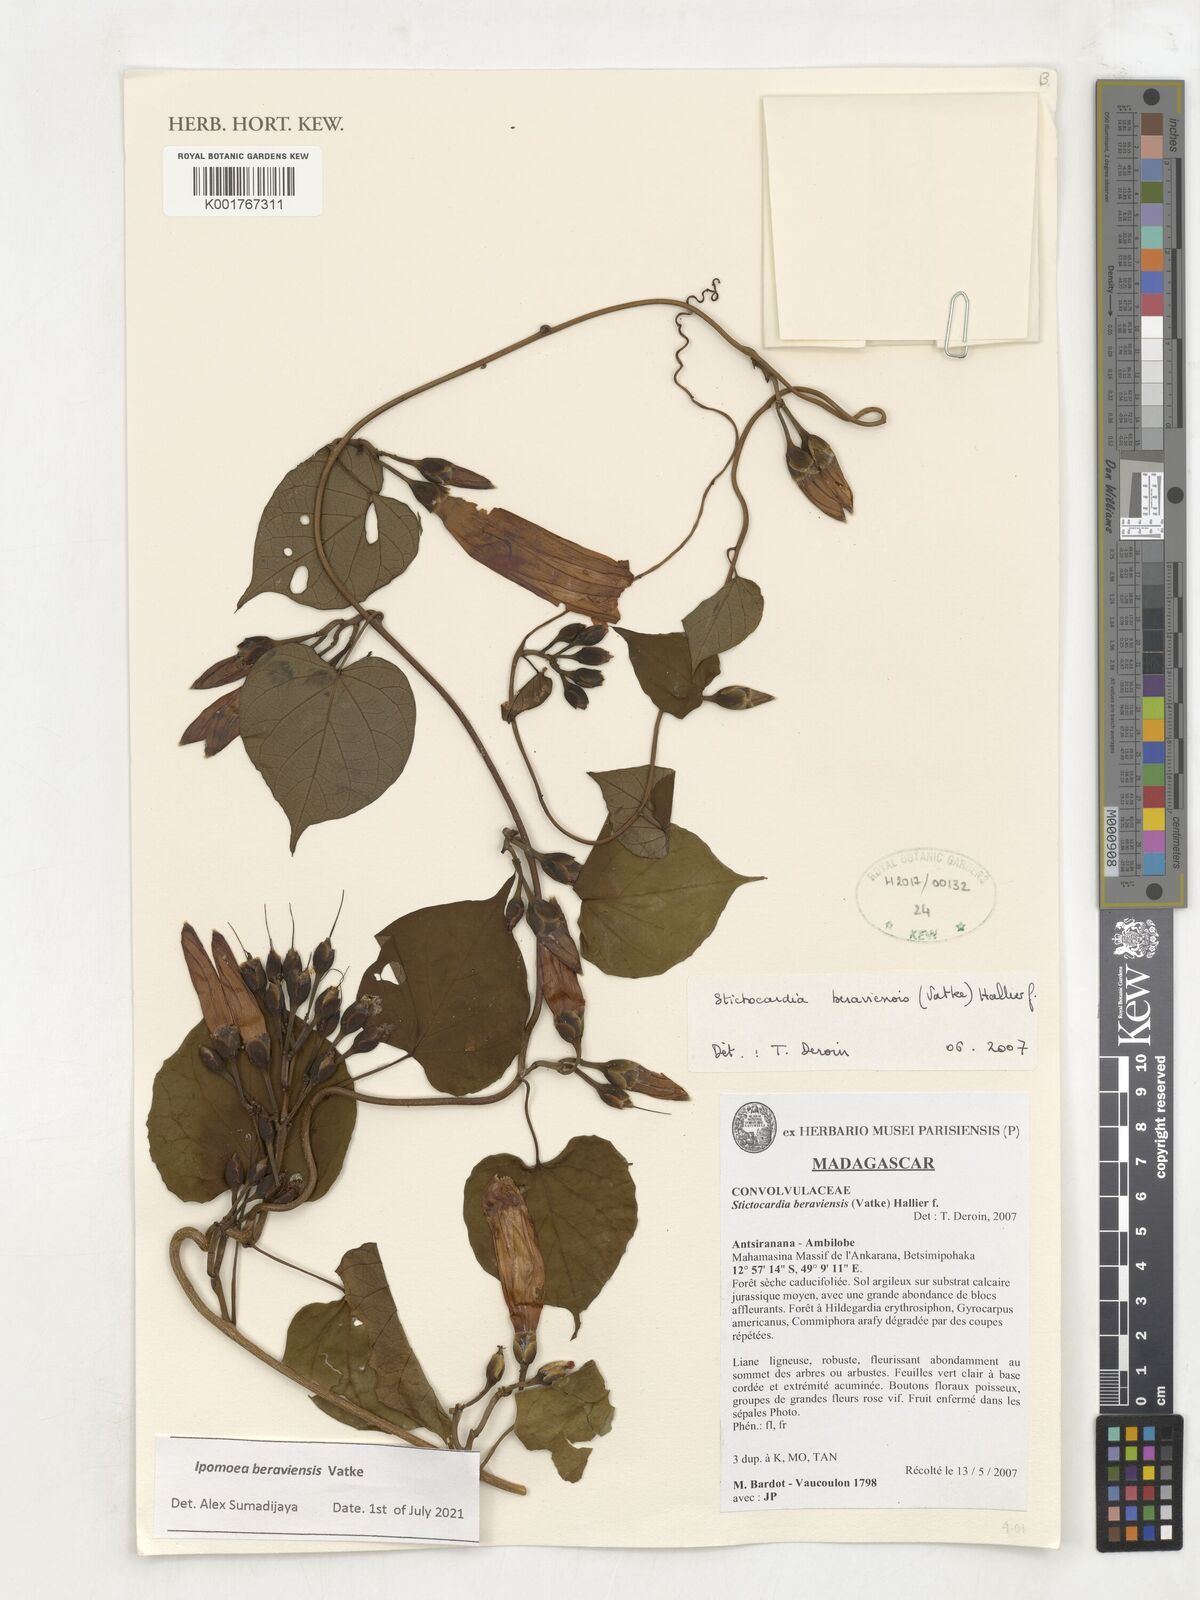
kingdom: Plantae
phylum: Tracheophyta
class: Magnoliopsida
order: Solanales
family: Convolvulaceae
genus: Stictocardia
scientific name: Stictocardia beraviensis
